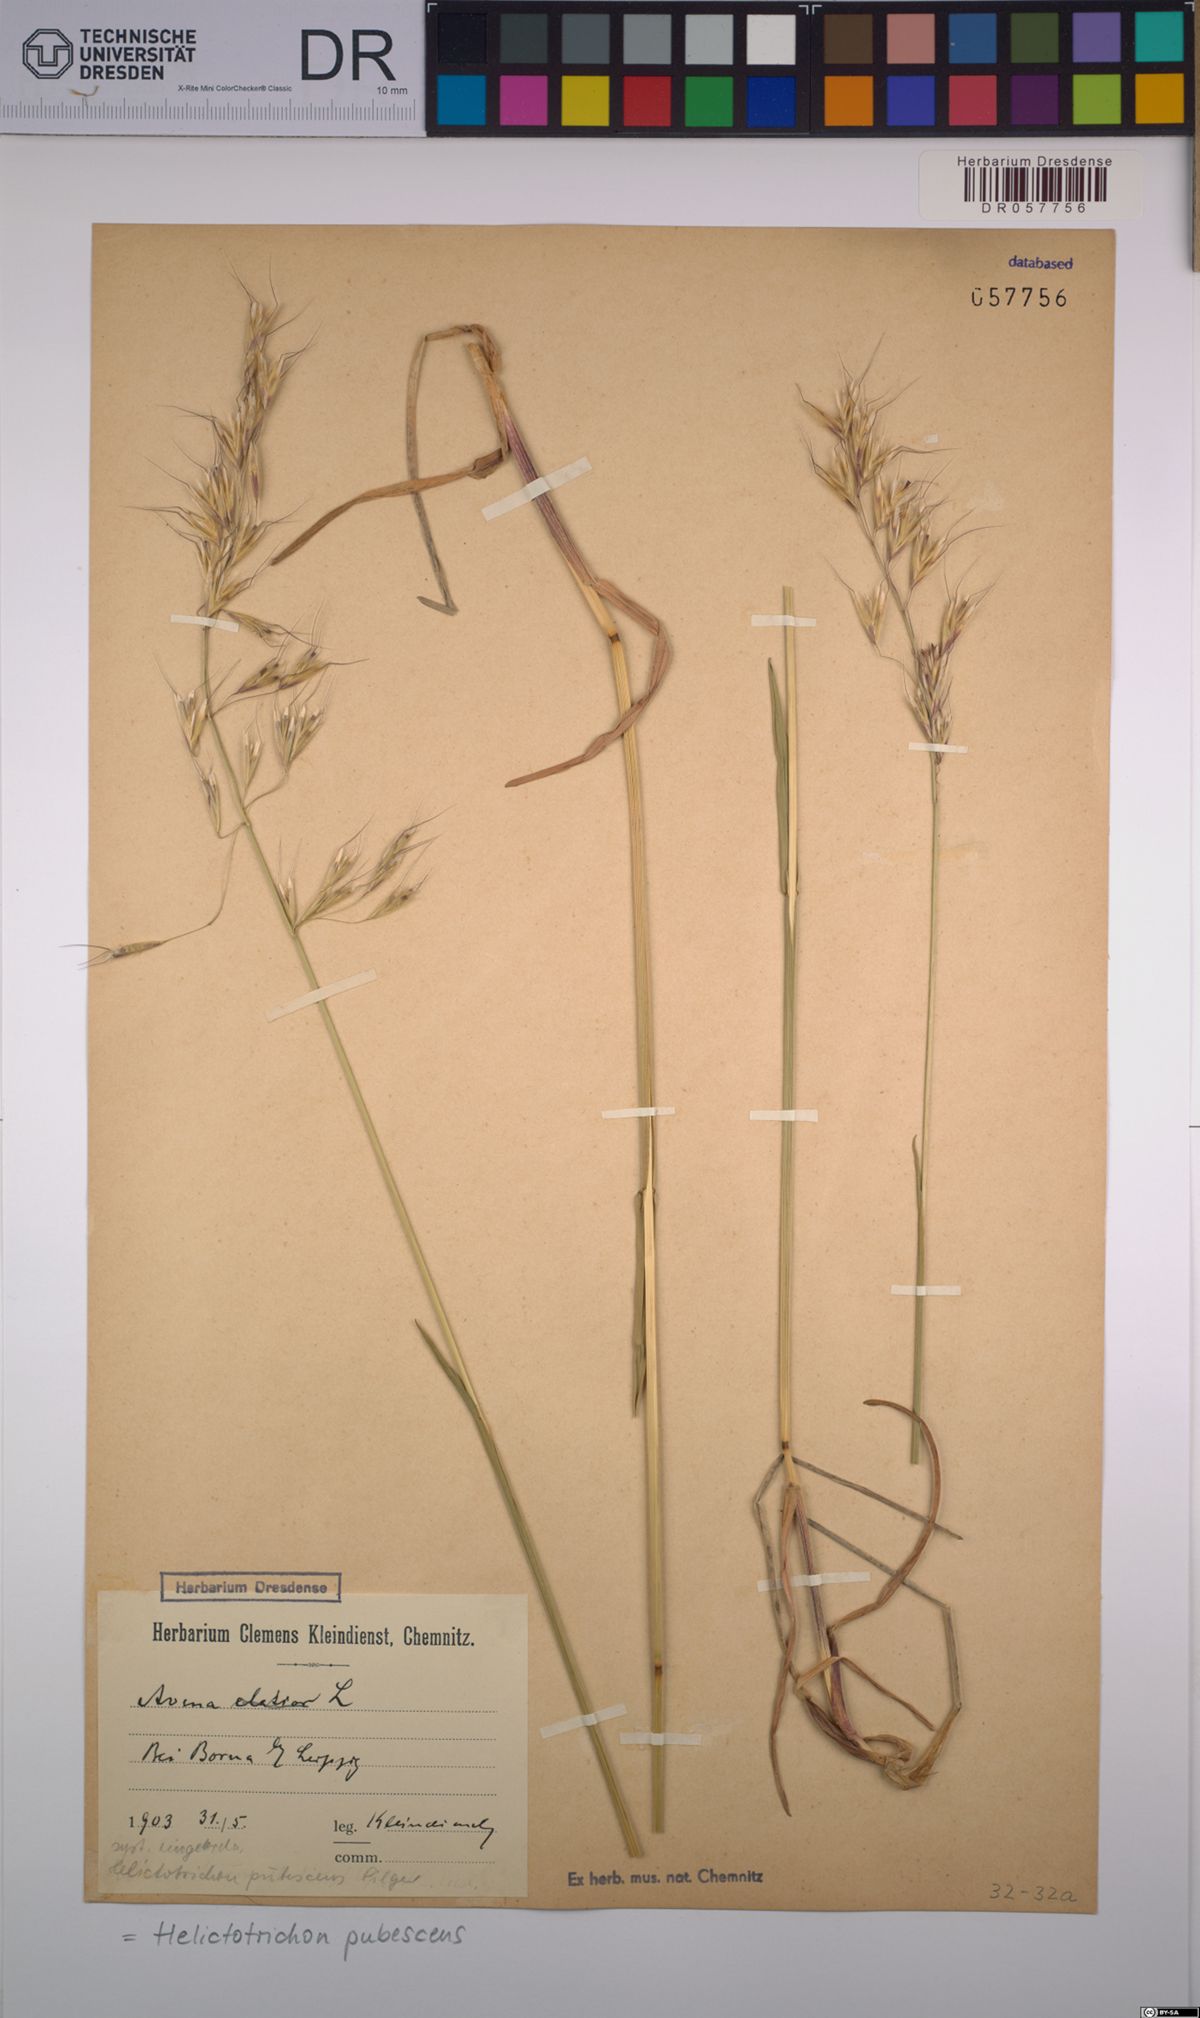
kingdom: Plantae
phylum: Tracheophyta
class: Liliopsida
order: Poales
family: Poaceae
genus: Avenula
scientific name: Avenula pubescens
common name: Downy alpine oatgrass
